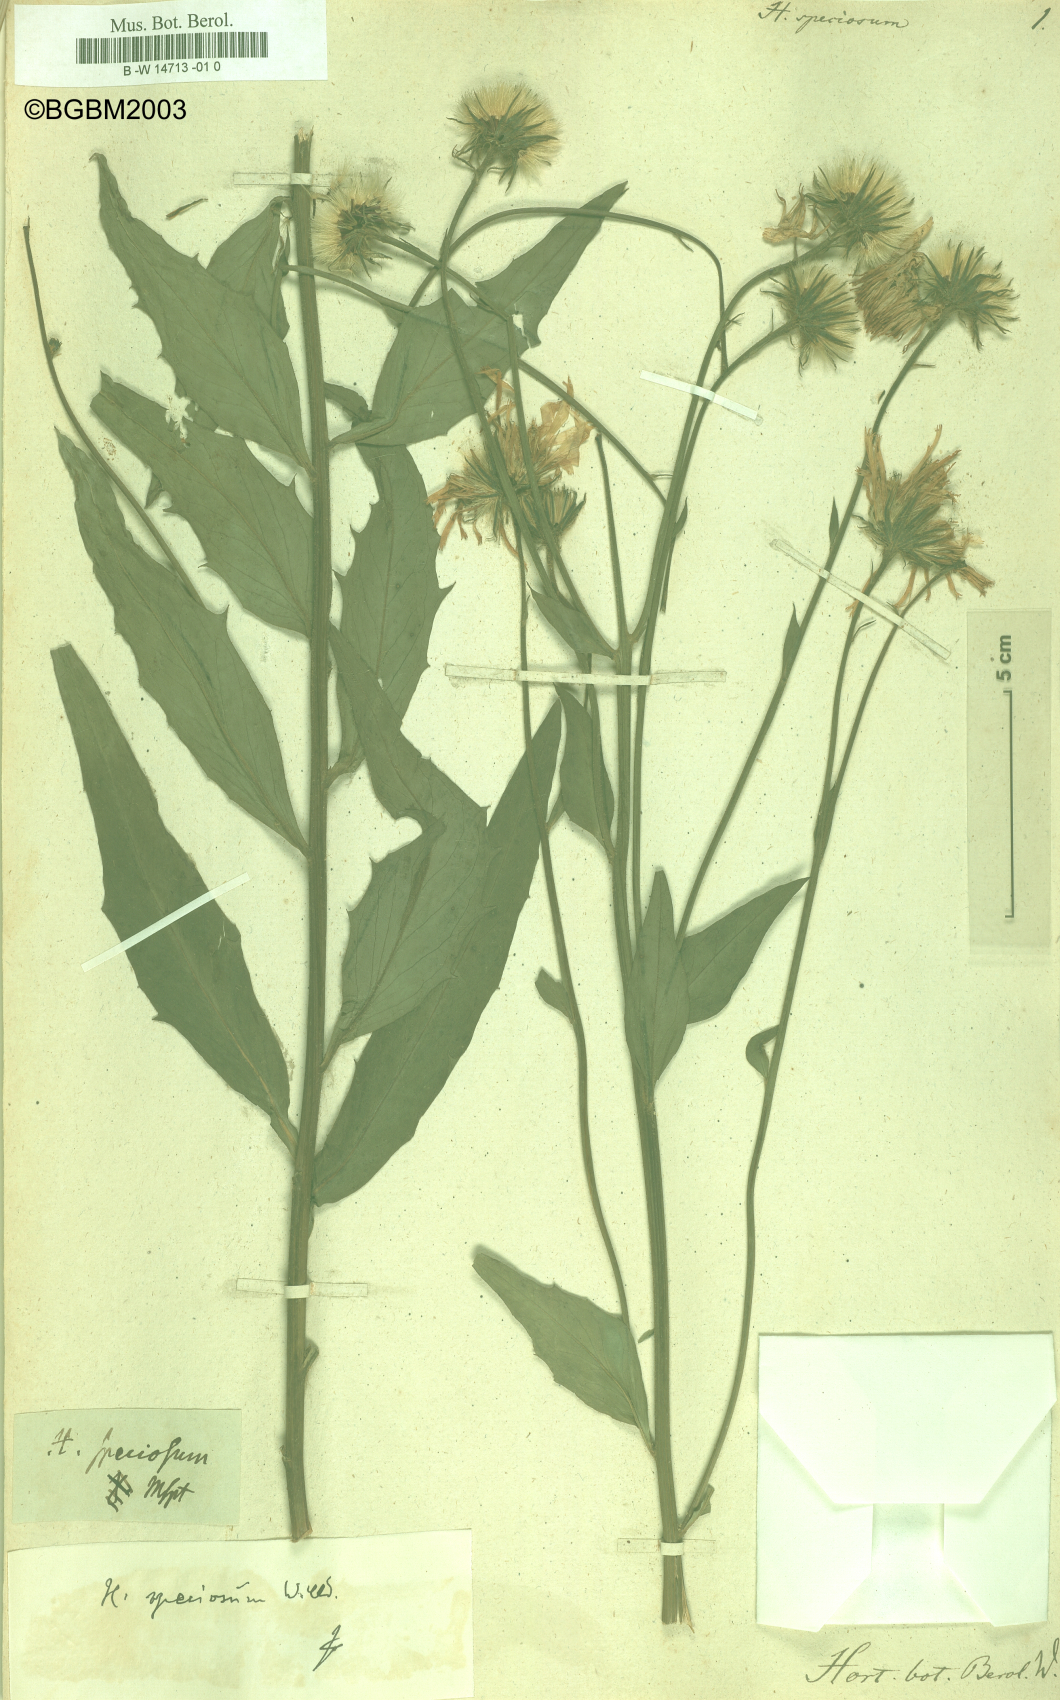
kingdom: Plantae
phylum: Tracheophyta
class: Magnoliopsida
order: Asterales
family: Asteraceae
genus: Hieracium
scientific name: Hieracium speciosum
